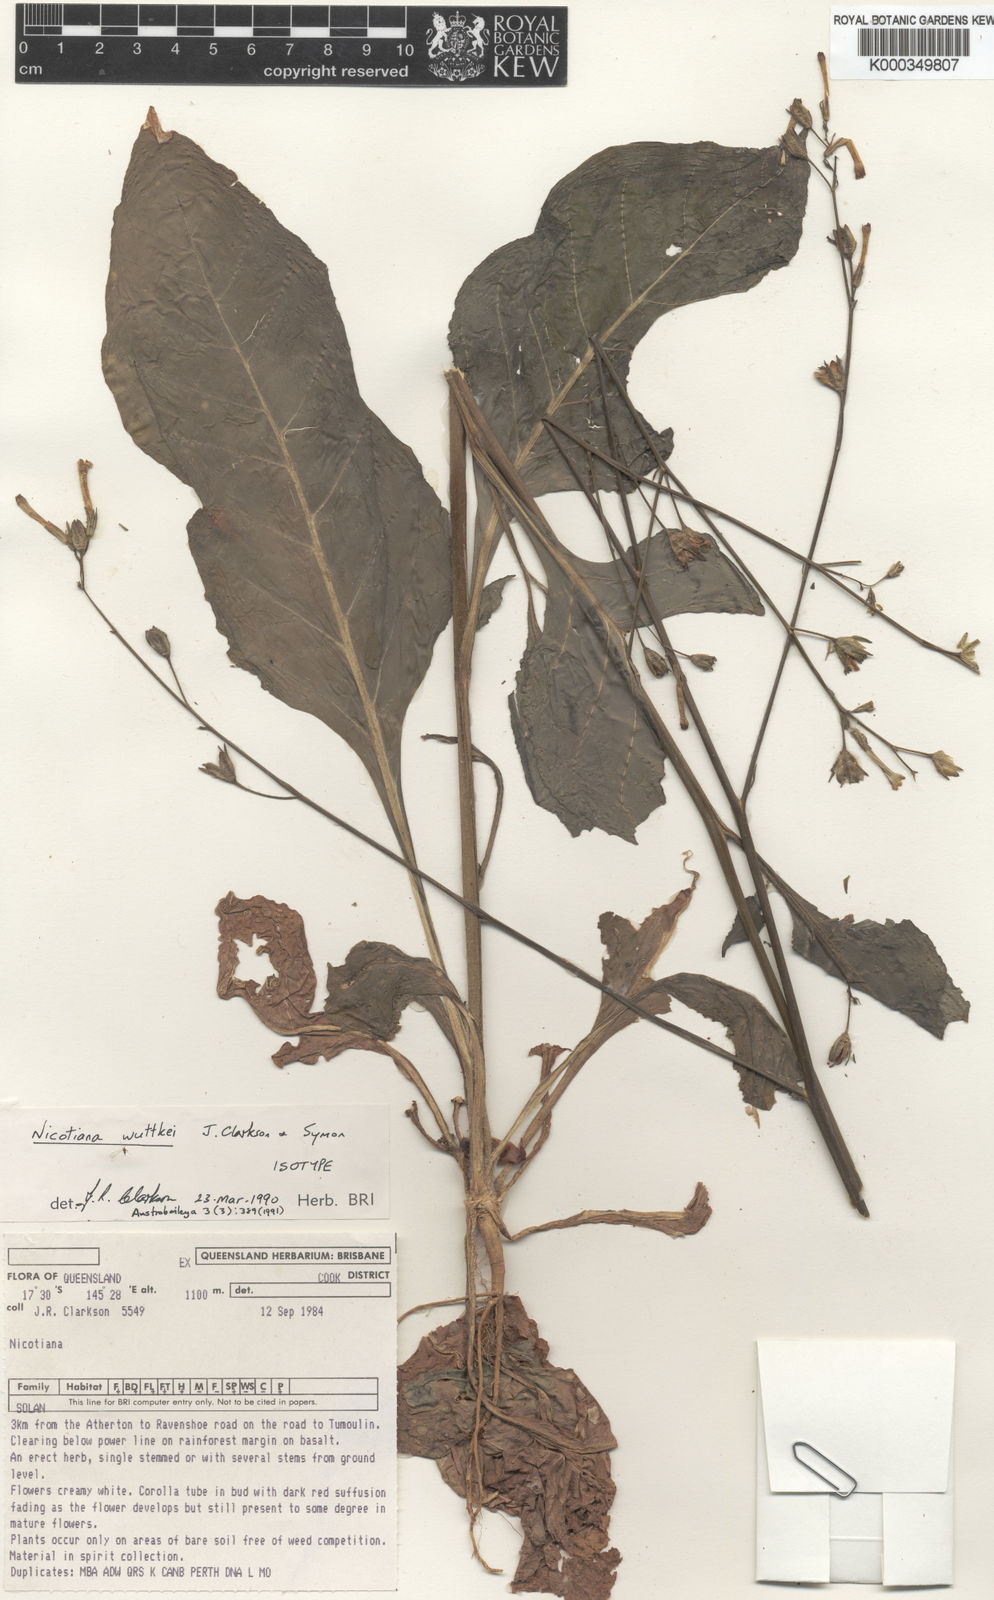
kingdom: Plantae
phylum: Tracheophyta
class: Magnoliopsida
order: Solanales
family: Solanaceae
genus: Nicotiana
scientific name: Nicotiana wuttkei
